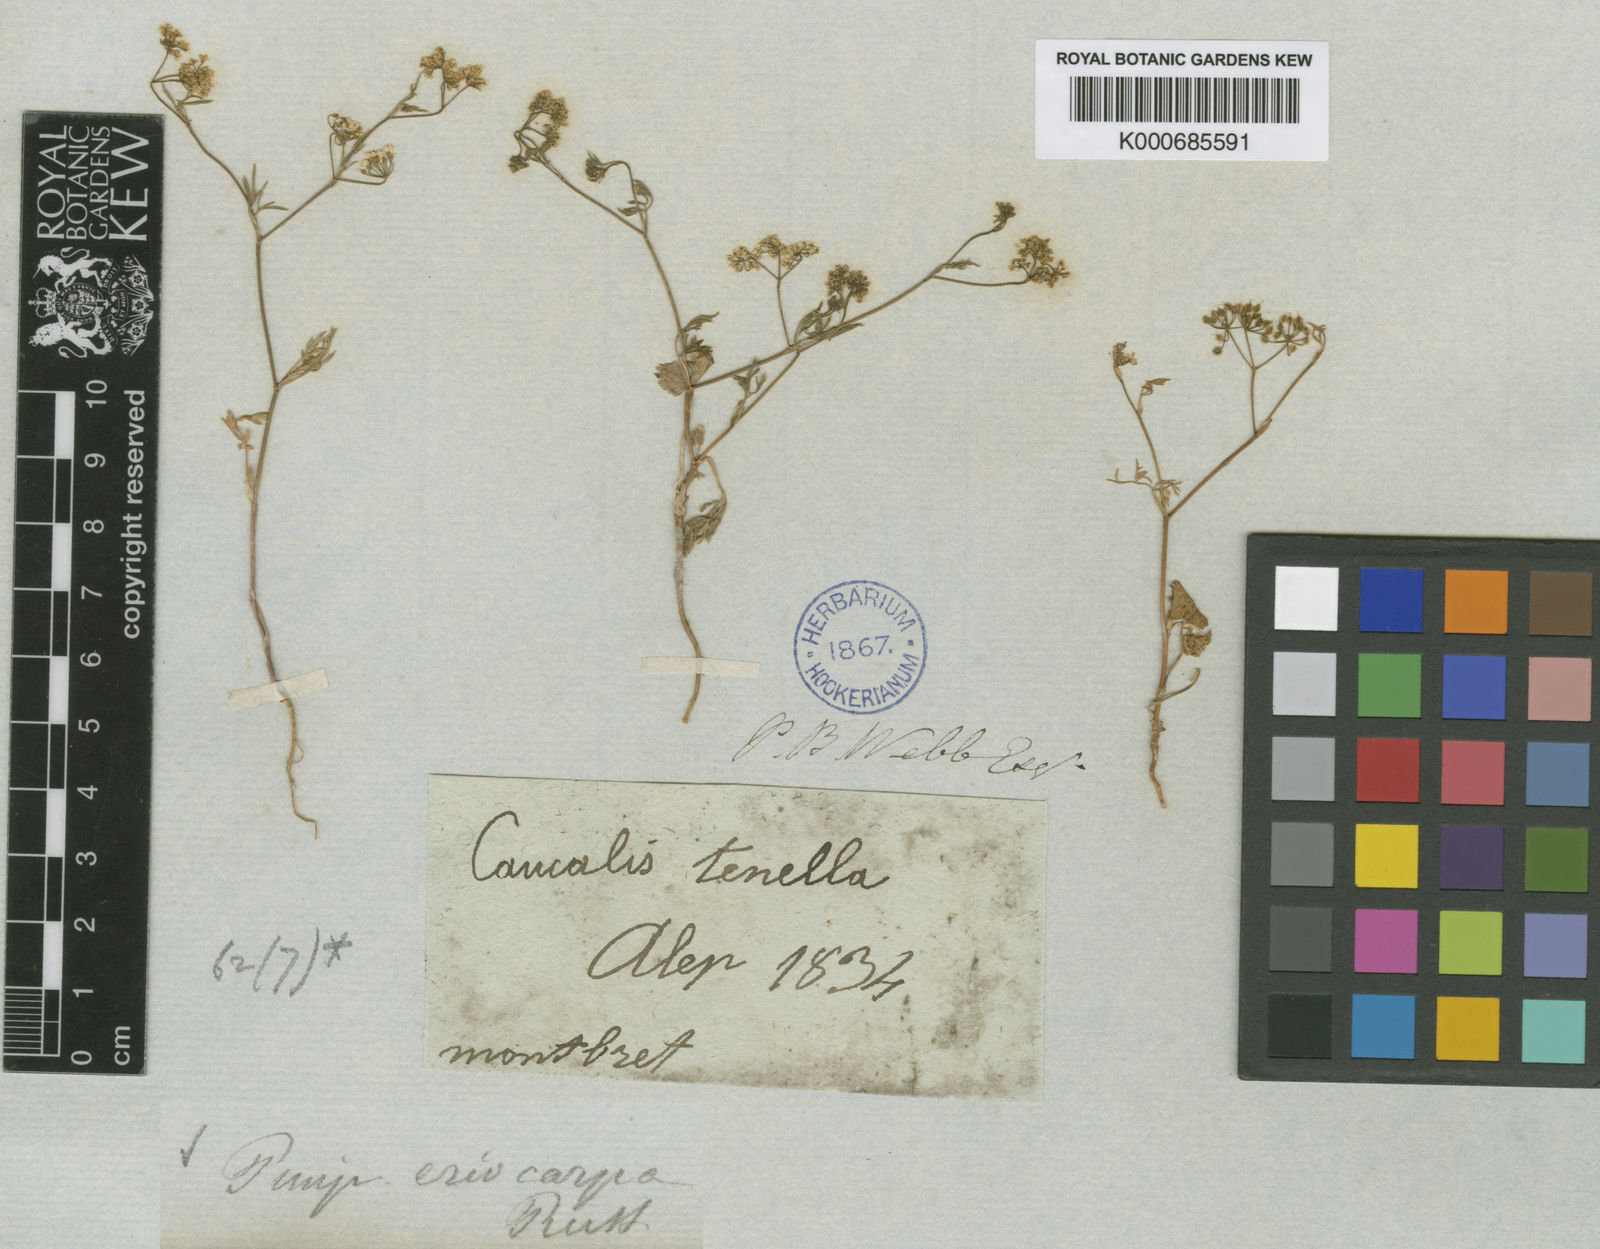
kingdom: Plantae
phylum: Tracheophyta
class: Magnoliopsida
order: Apiales
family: Apiaceae
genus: Pimpinella
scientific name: Pimpinella eriocarpa
